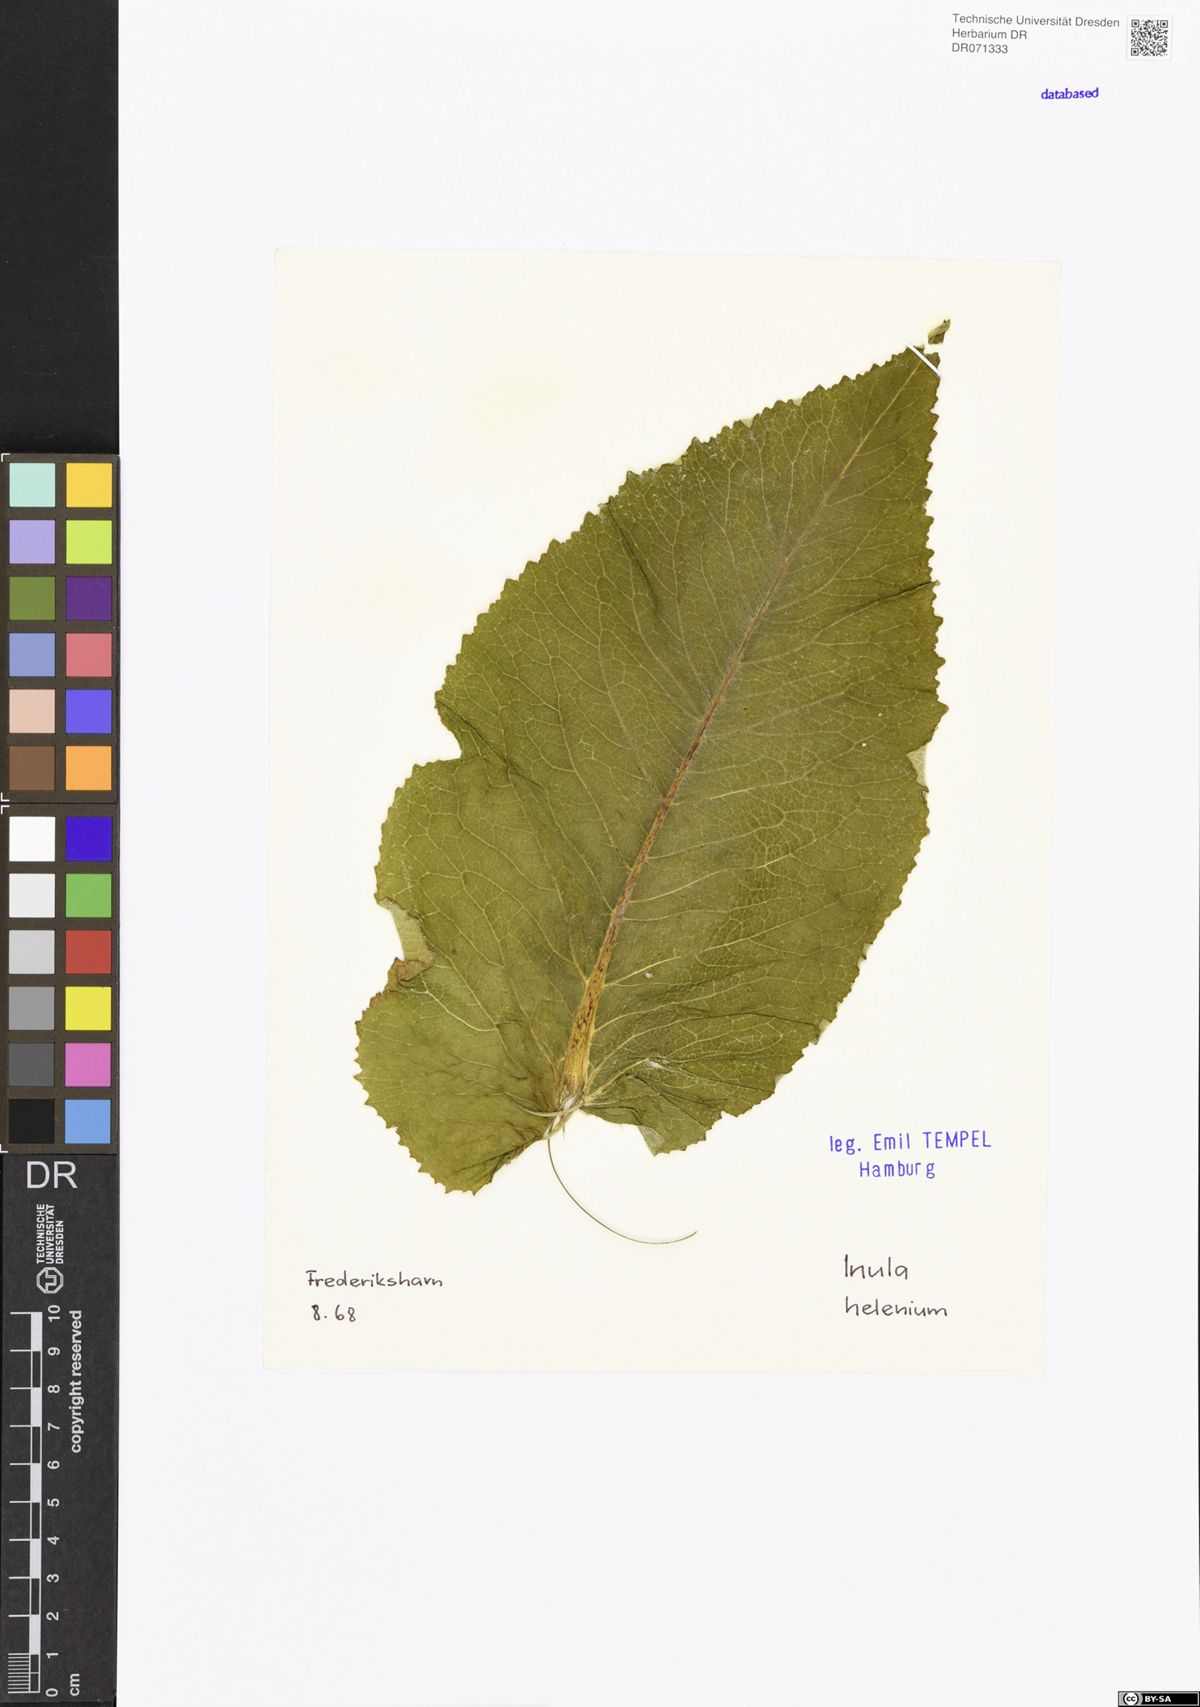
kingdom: Plantae
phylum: Tracheophyta
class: Magnoliopsida
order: Asterales
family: Asteraceae
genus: Inula
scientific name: Inula helenium
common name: Elecampane
